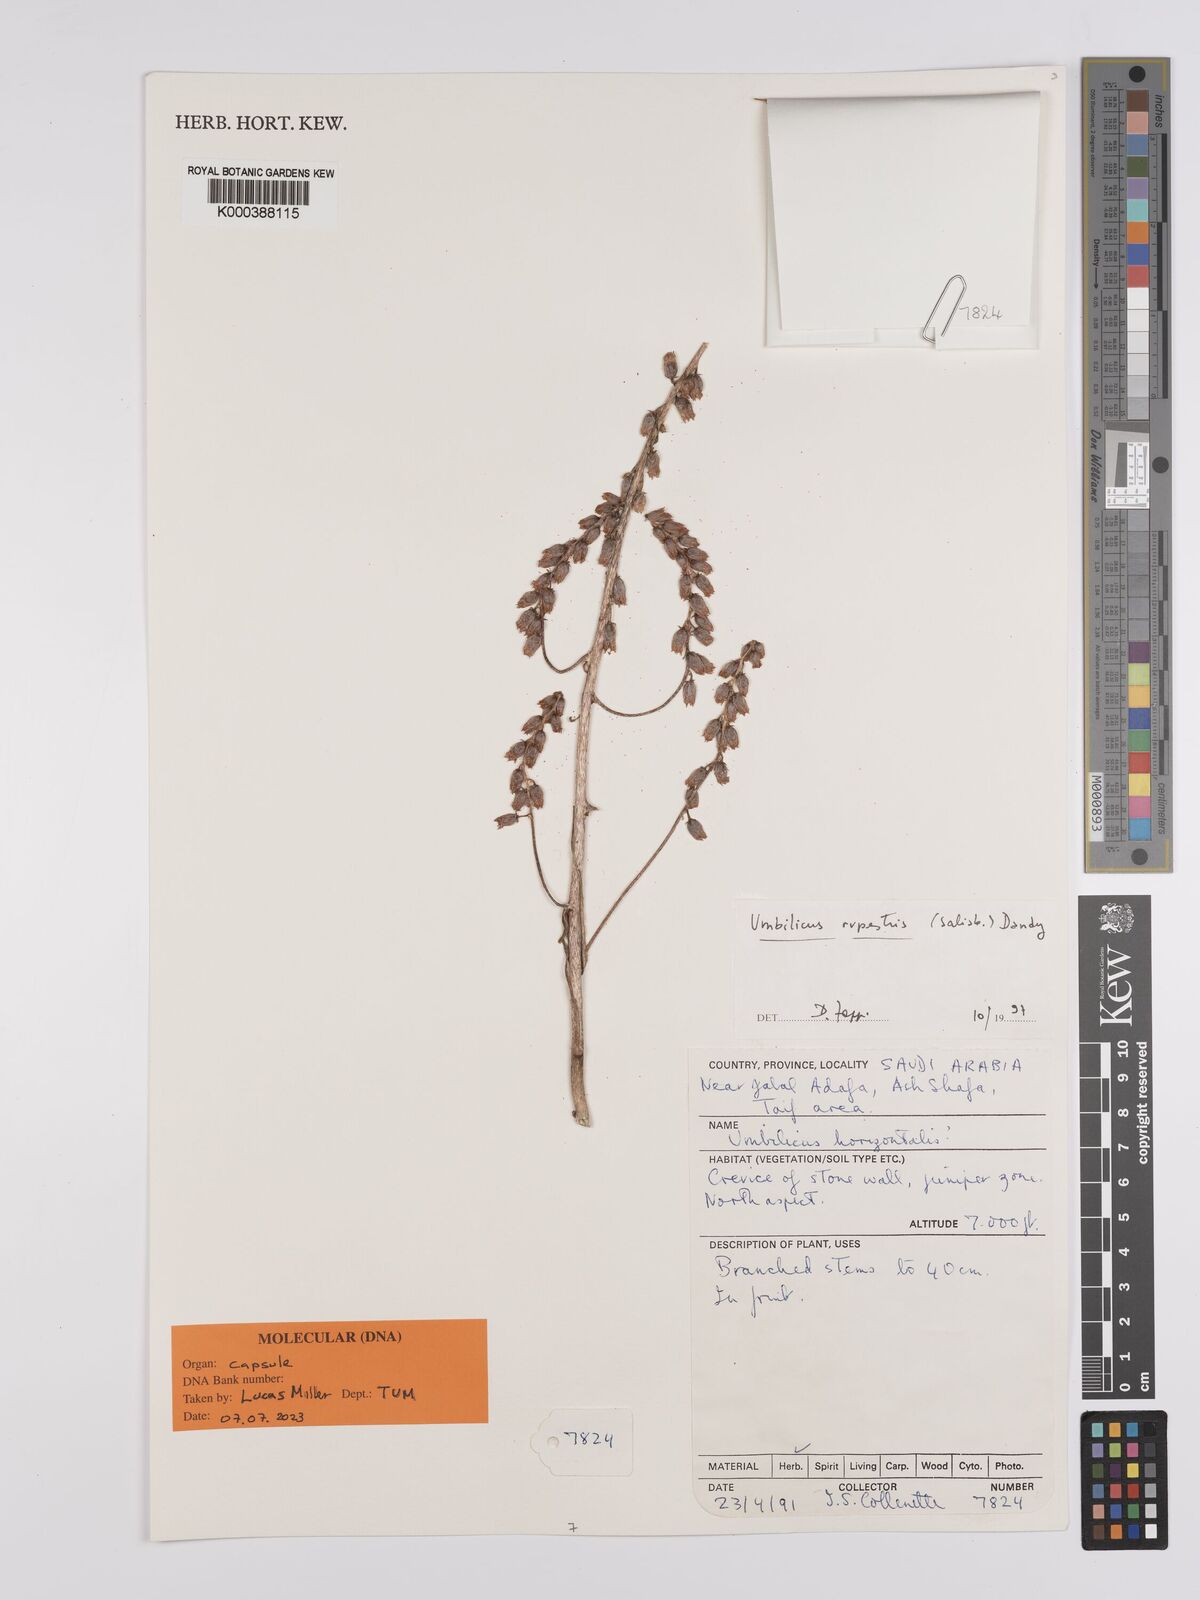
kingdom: Plantae
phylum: Tracheophyta
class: Magnoliopsida
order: Saxifragales
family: Crassulaceae
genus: Umbilicus
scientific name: Umbilicus rupestris
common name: Navelwort
